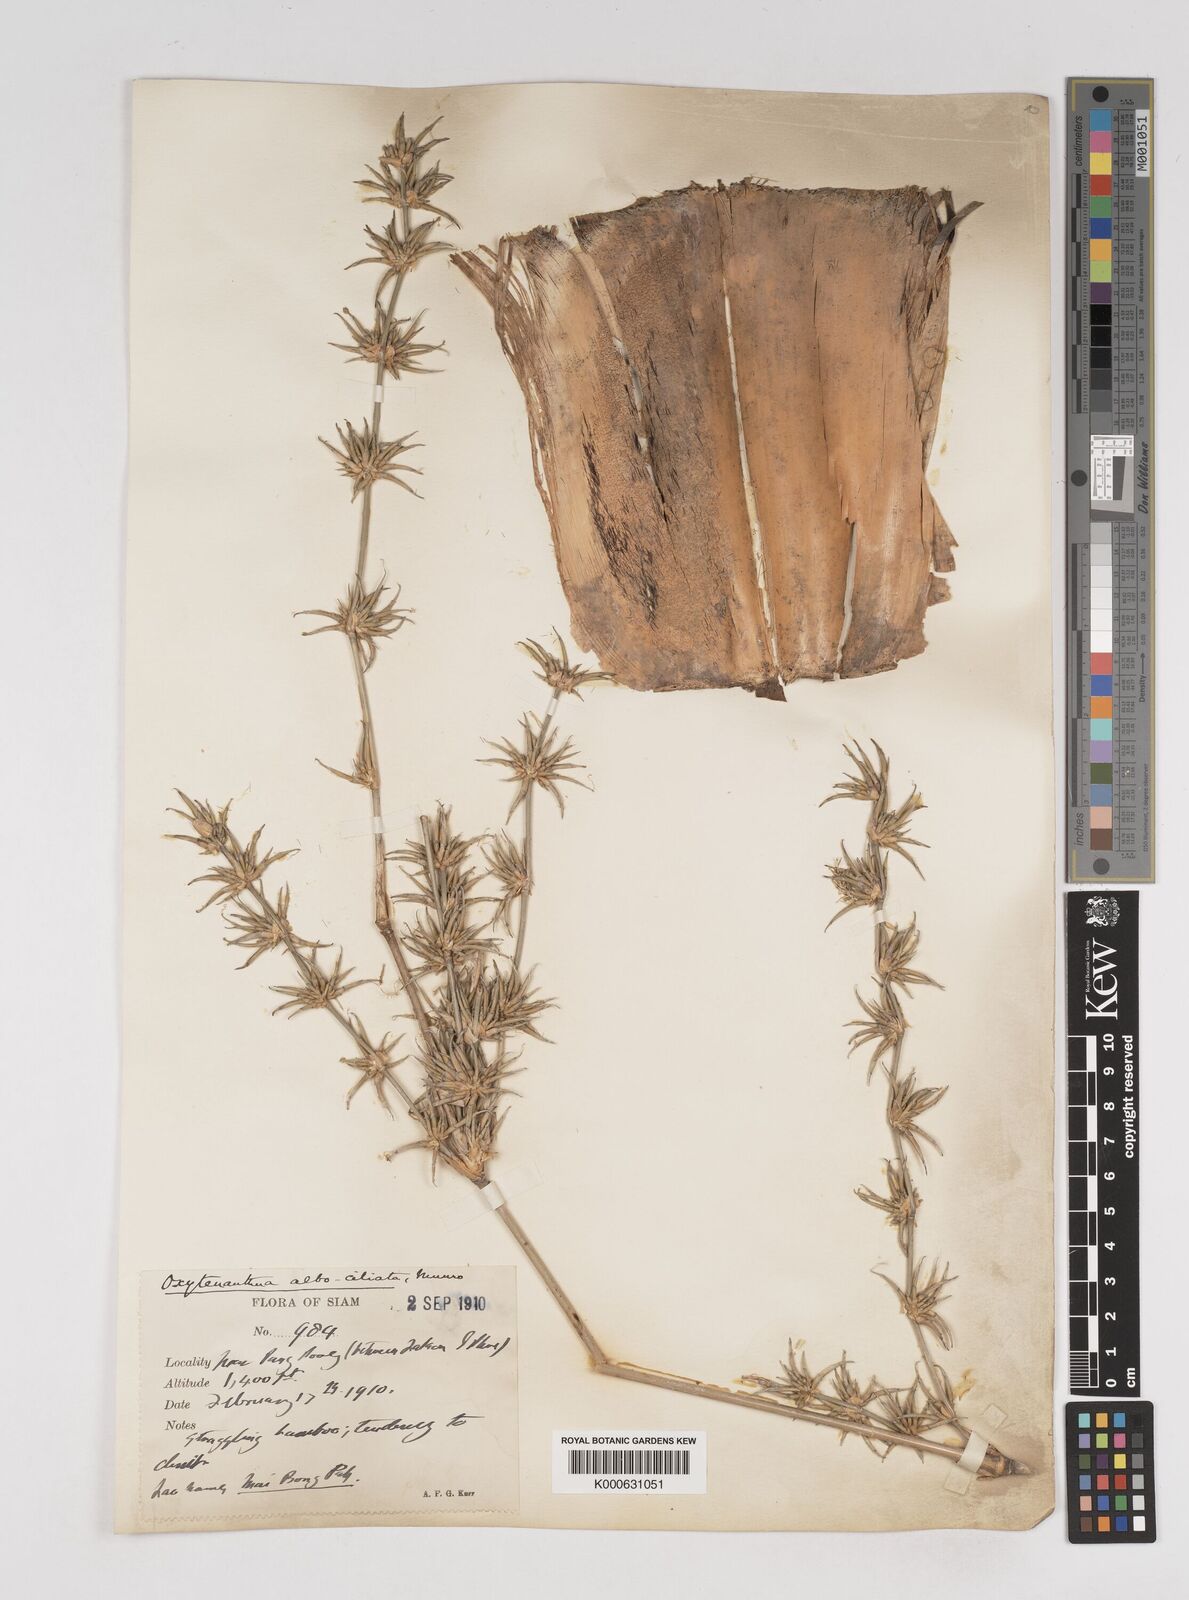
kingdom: Plantae
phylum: Tracheophyta
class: Liliopsida
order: Poales
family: Poaceae
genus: Gigantochloa
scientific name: Gigantochloa albociliata
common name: White-fringe gigantochloa
